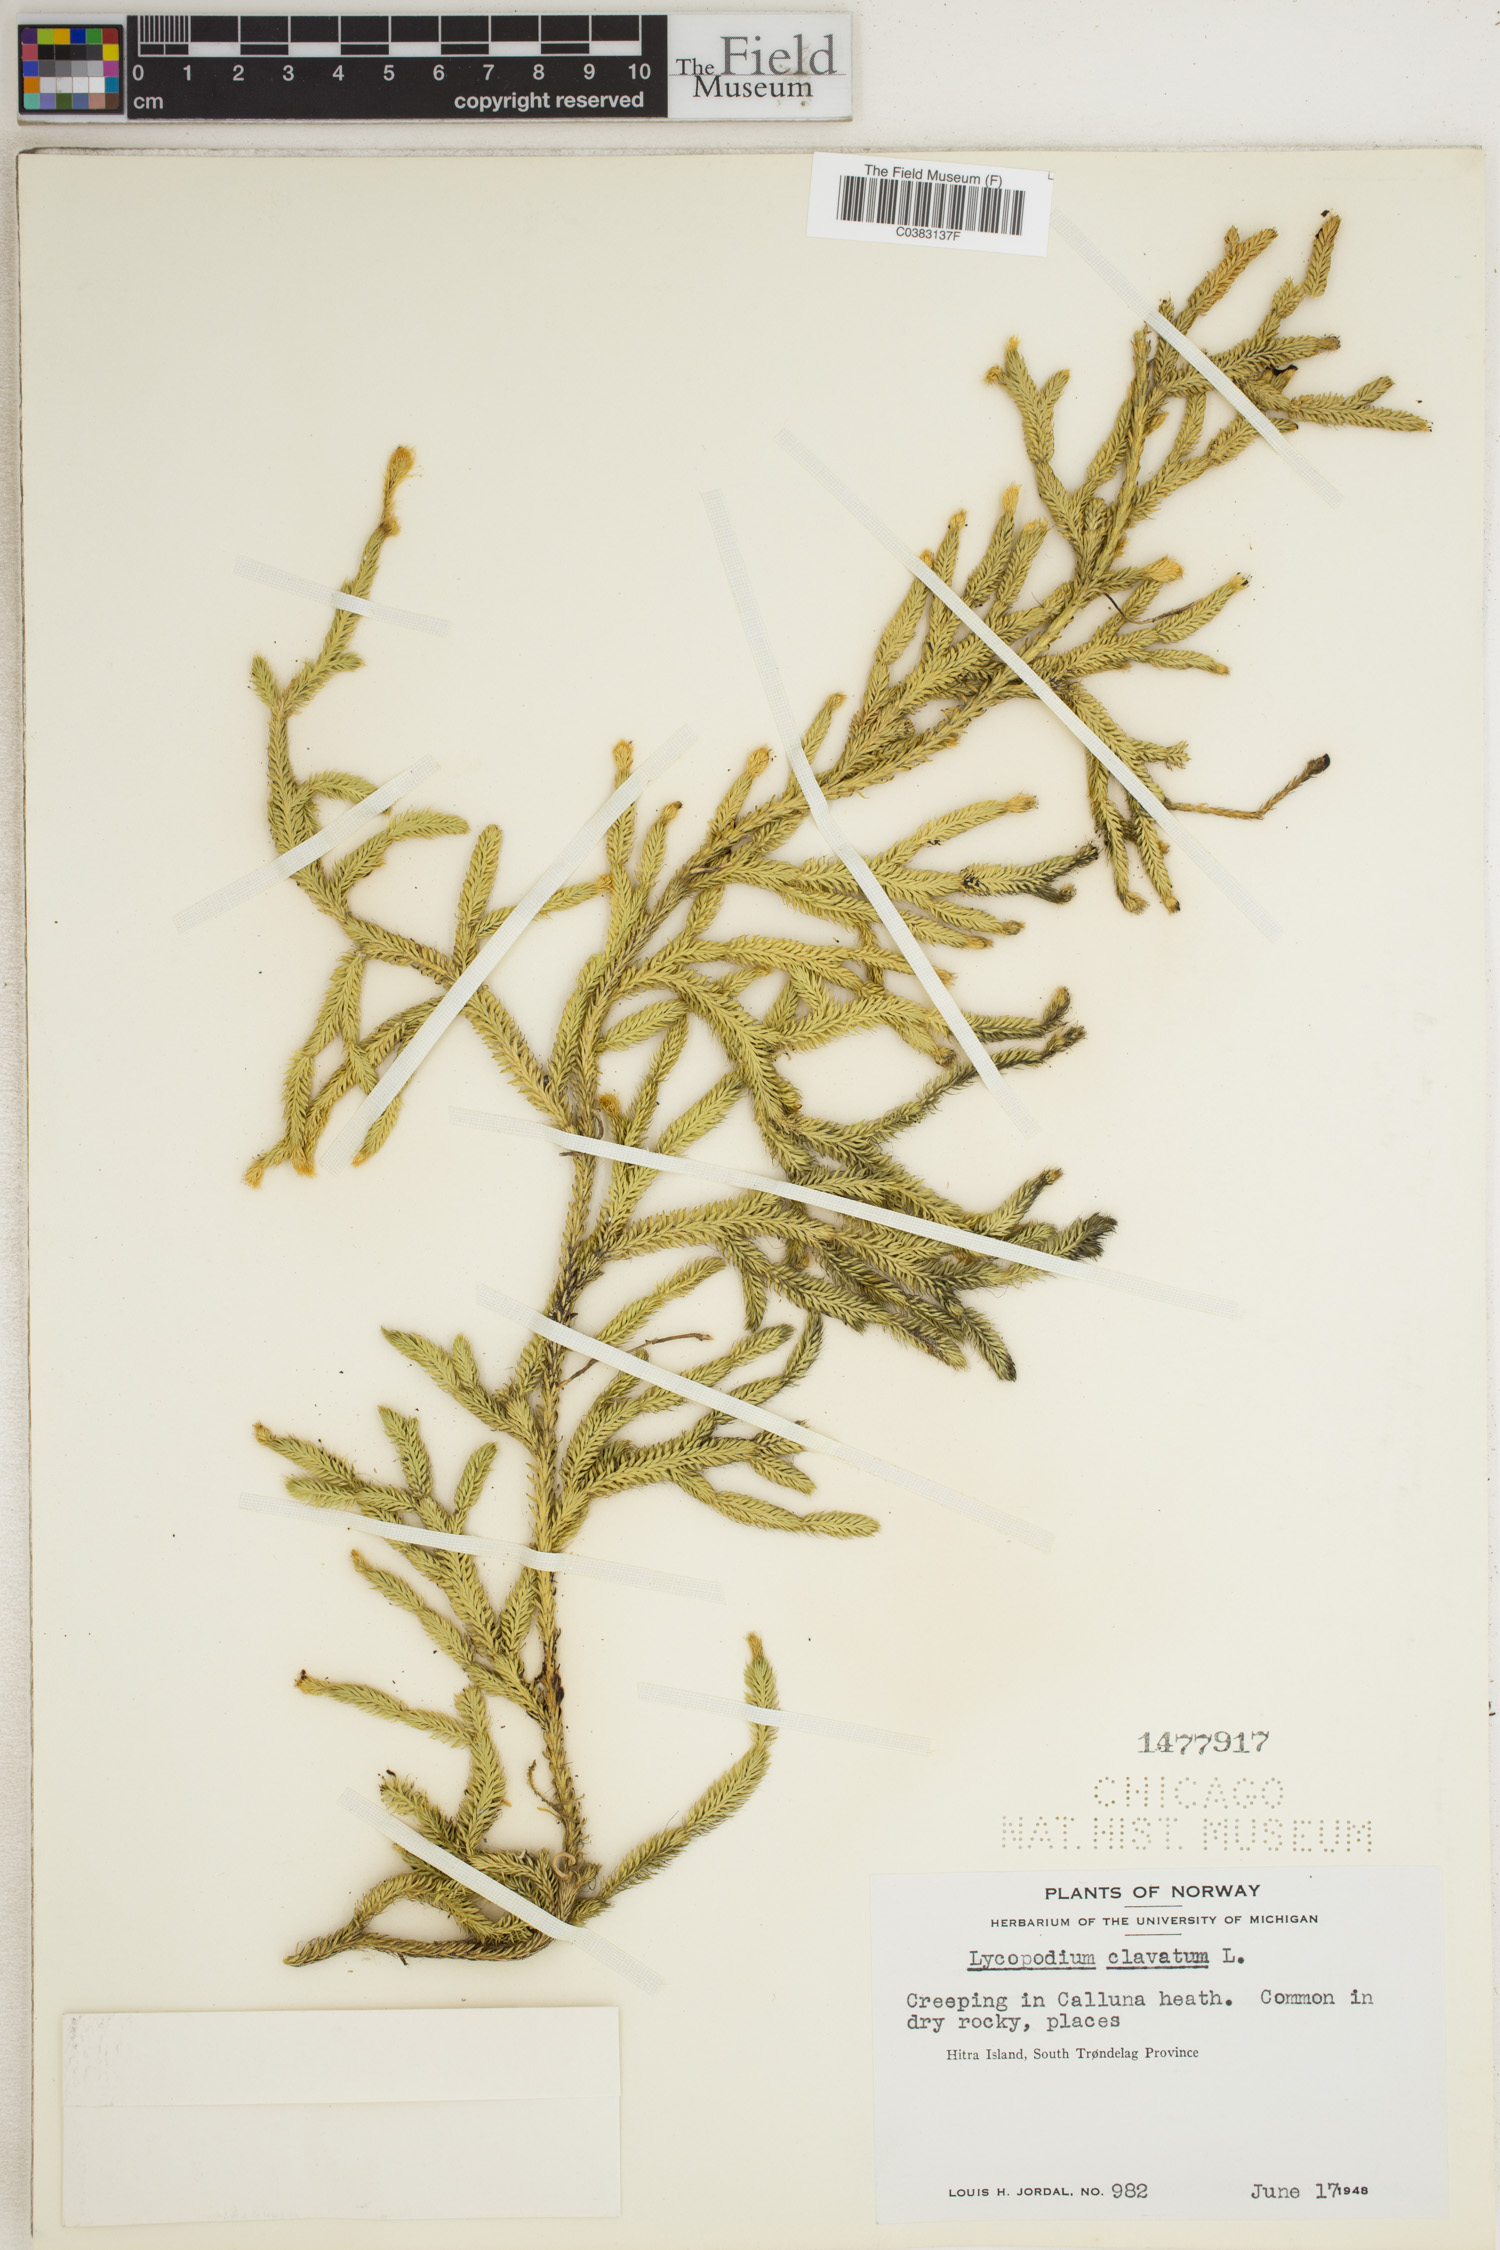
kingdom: Plantae
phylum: Tracheophyta
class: Lycopodiopsida
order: Lycopodiales
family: Lycopodiaceae
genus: Lycopodium
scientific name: Lycopodium clavatum
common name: Stag's-horn clubmoss
